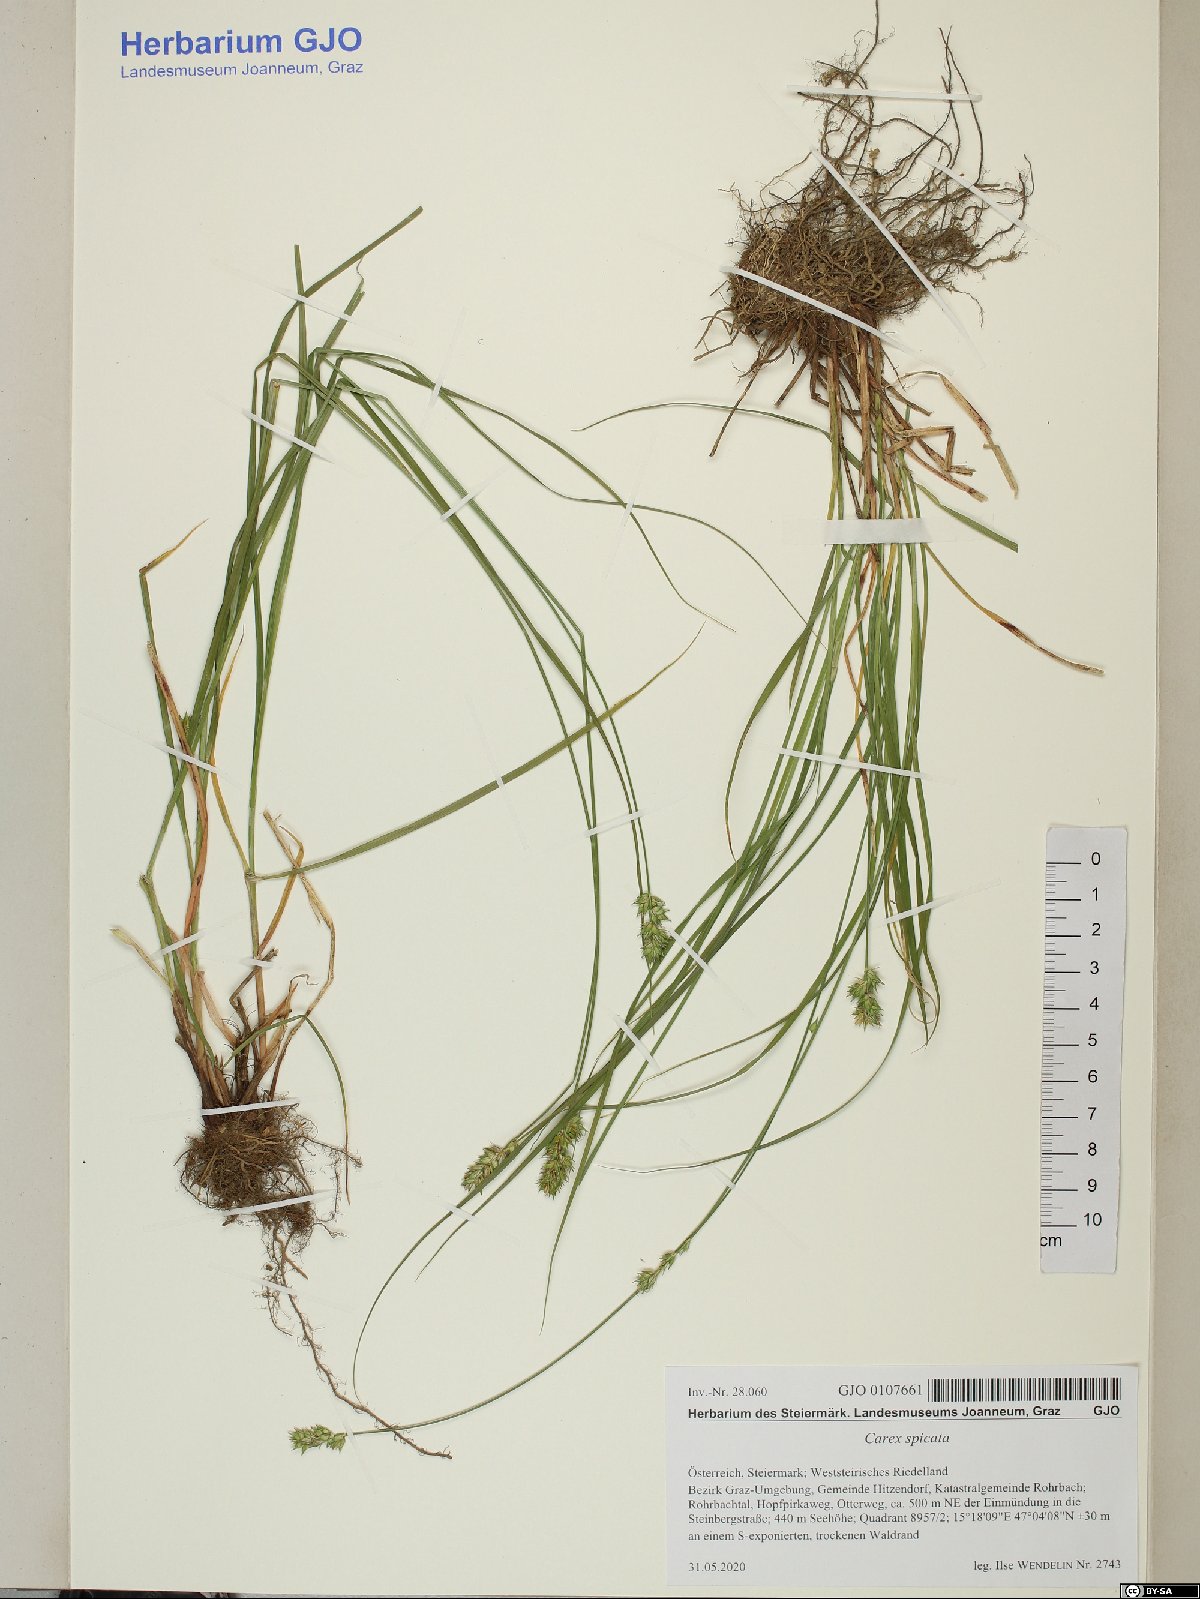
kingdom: Plantae
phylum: Tracheophyta
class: Liliopsida
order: Poales
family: Cyperaceae
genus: Carex
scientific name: Carex spicata
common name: Spiked sedge
